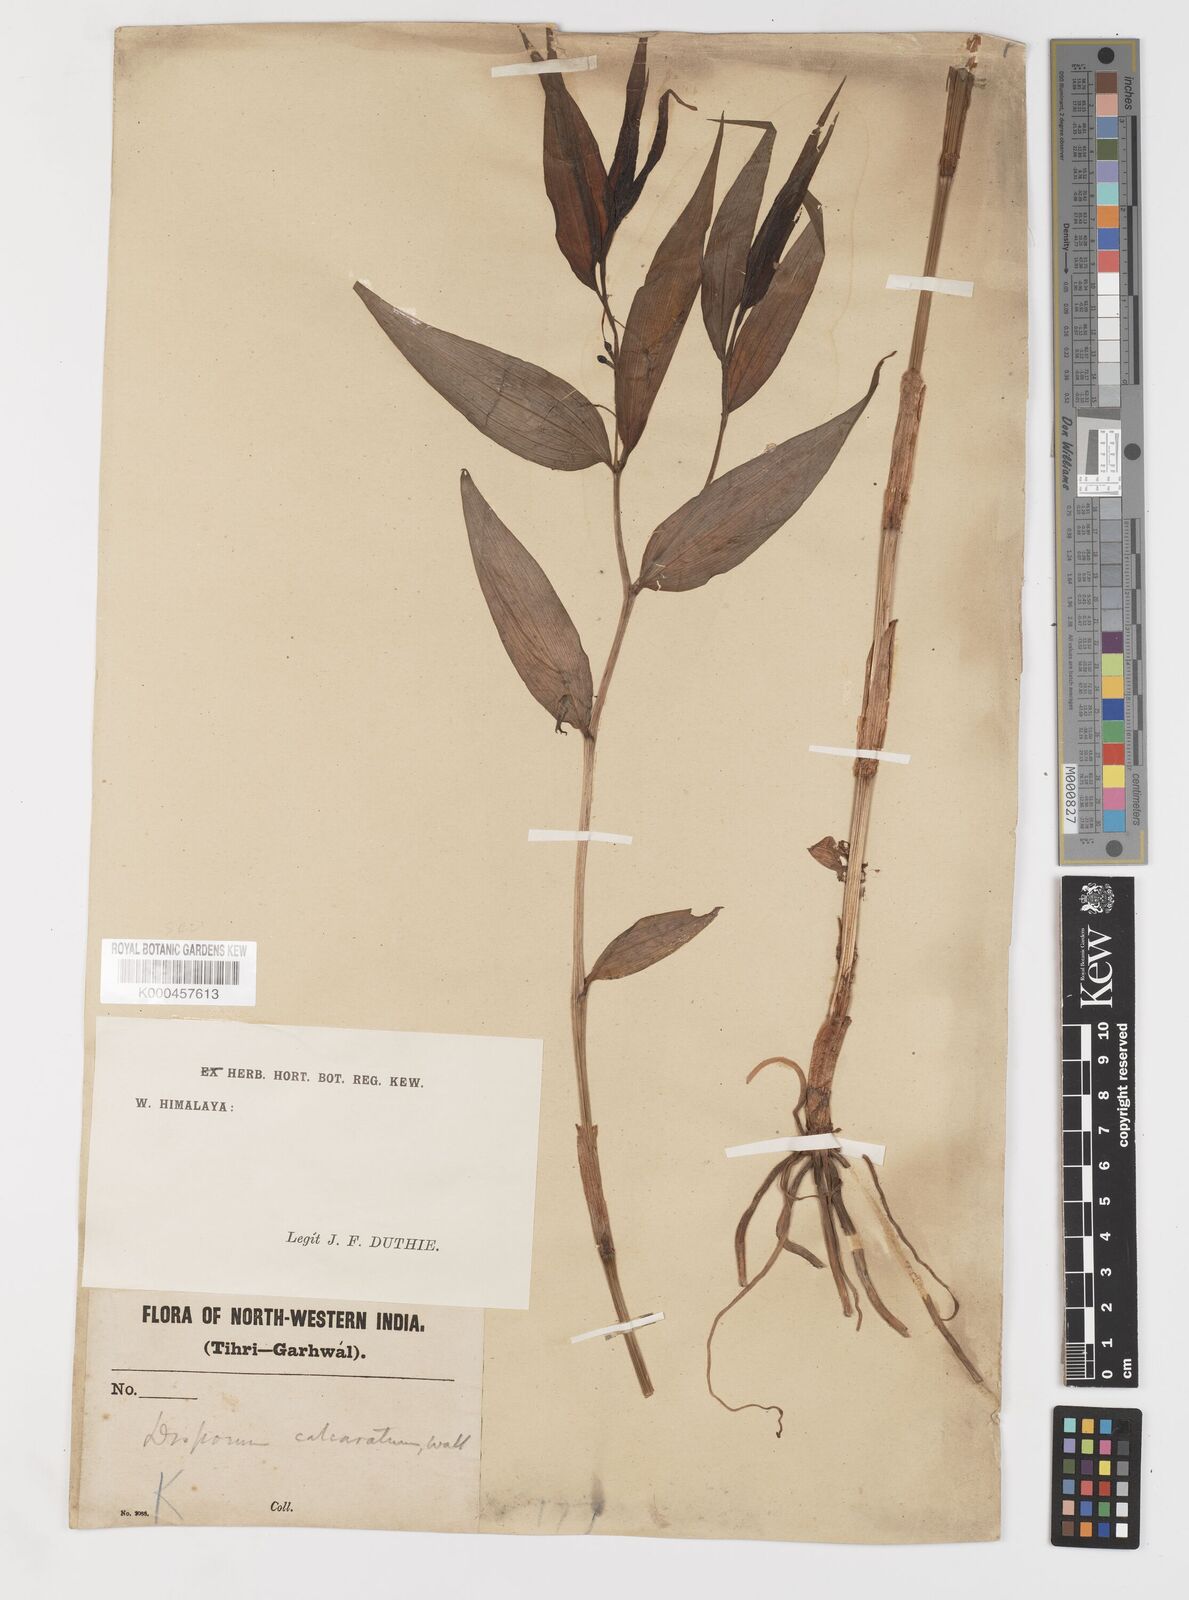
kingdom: Plantae
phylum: Tracheophyta
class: Liliopsida
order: Liliales
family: Colchicaceae
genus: Disporum
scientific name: Disporum calcaratum
